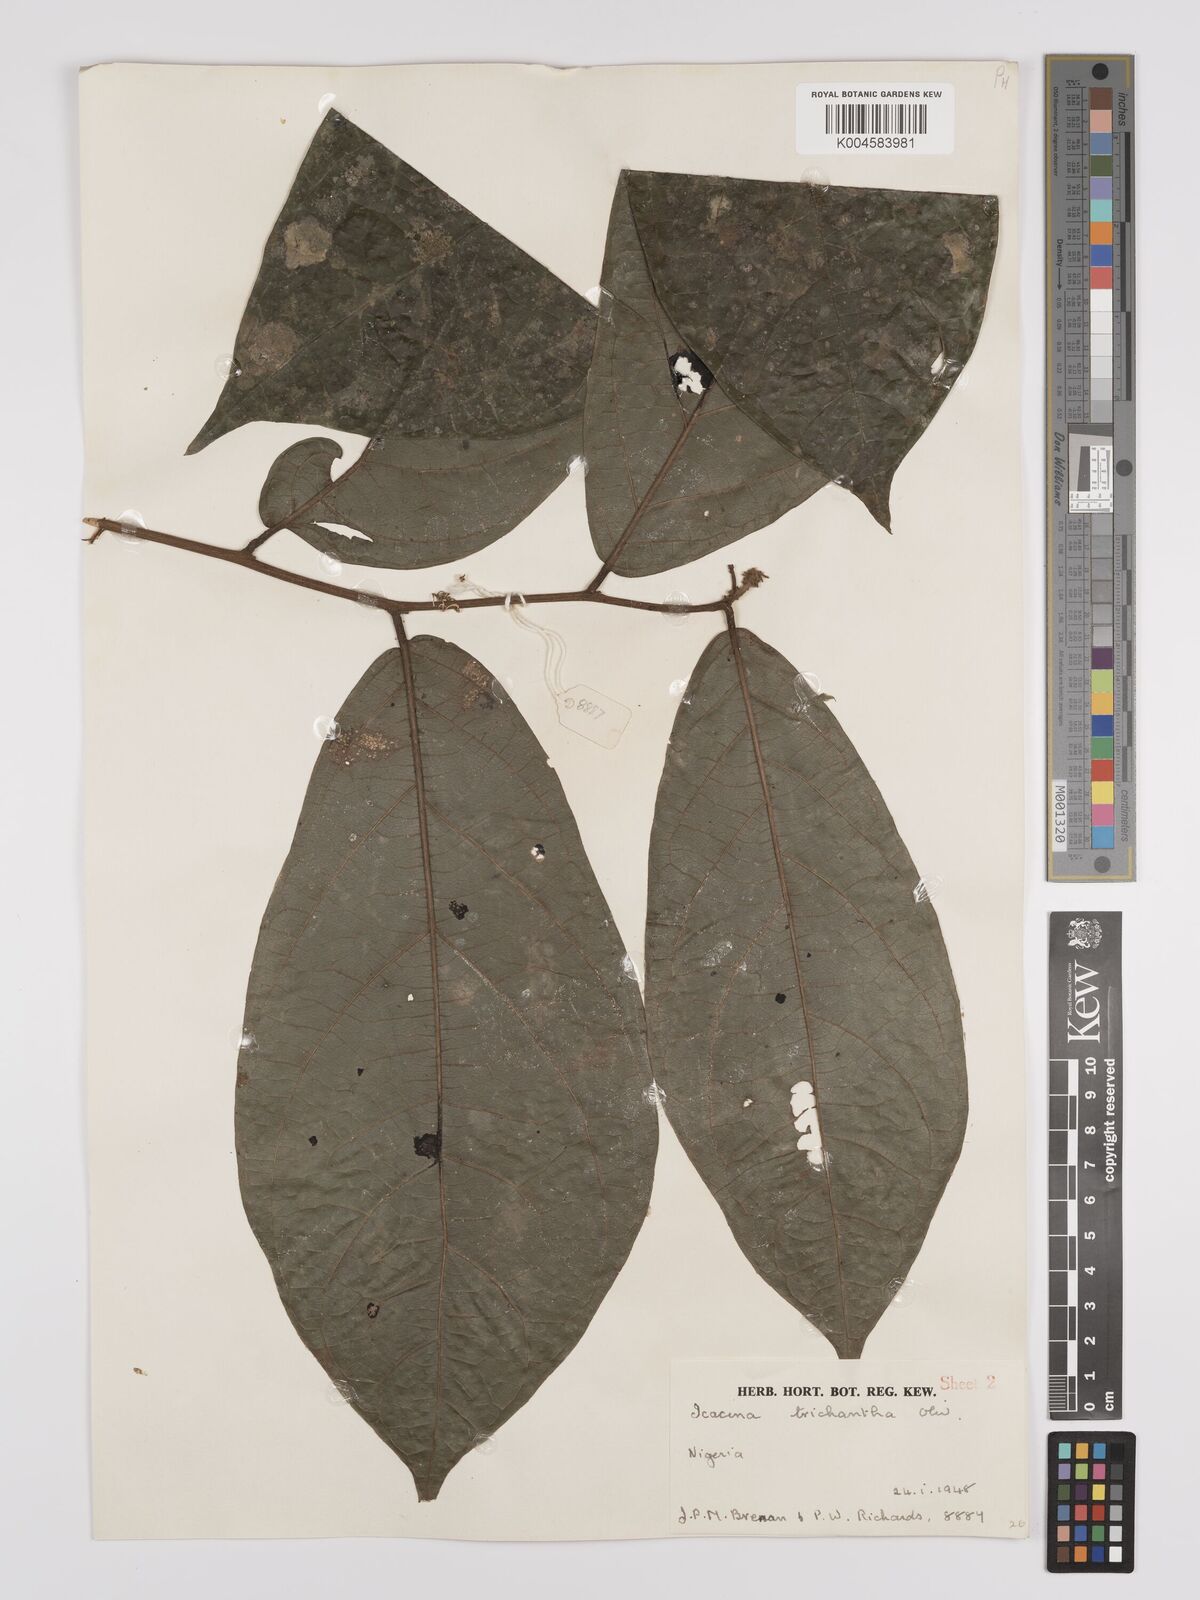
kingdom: Plantae
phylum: Tracheophyta
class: Magnoliopsida
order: Icacinales
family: Icacinaceae
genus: Icacina
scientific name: Icacina trichantha
